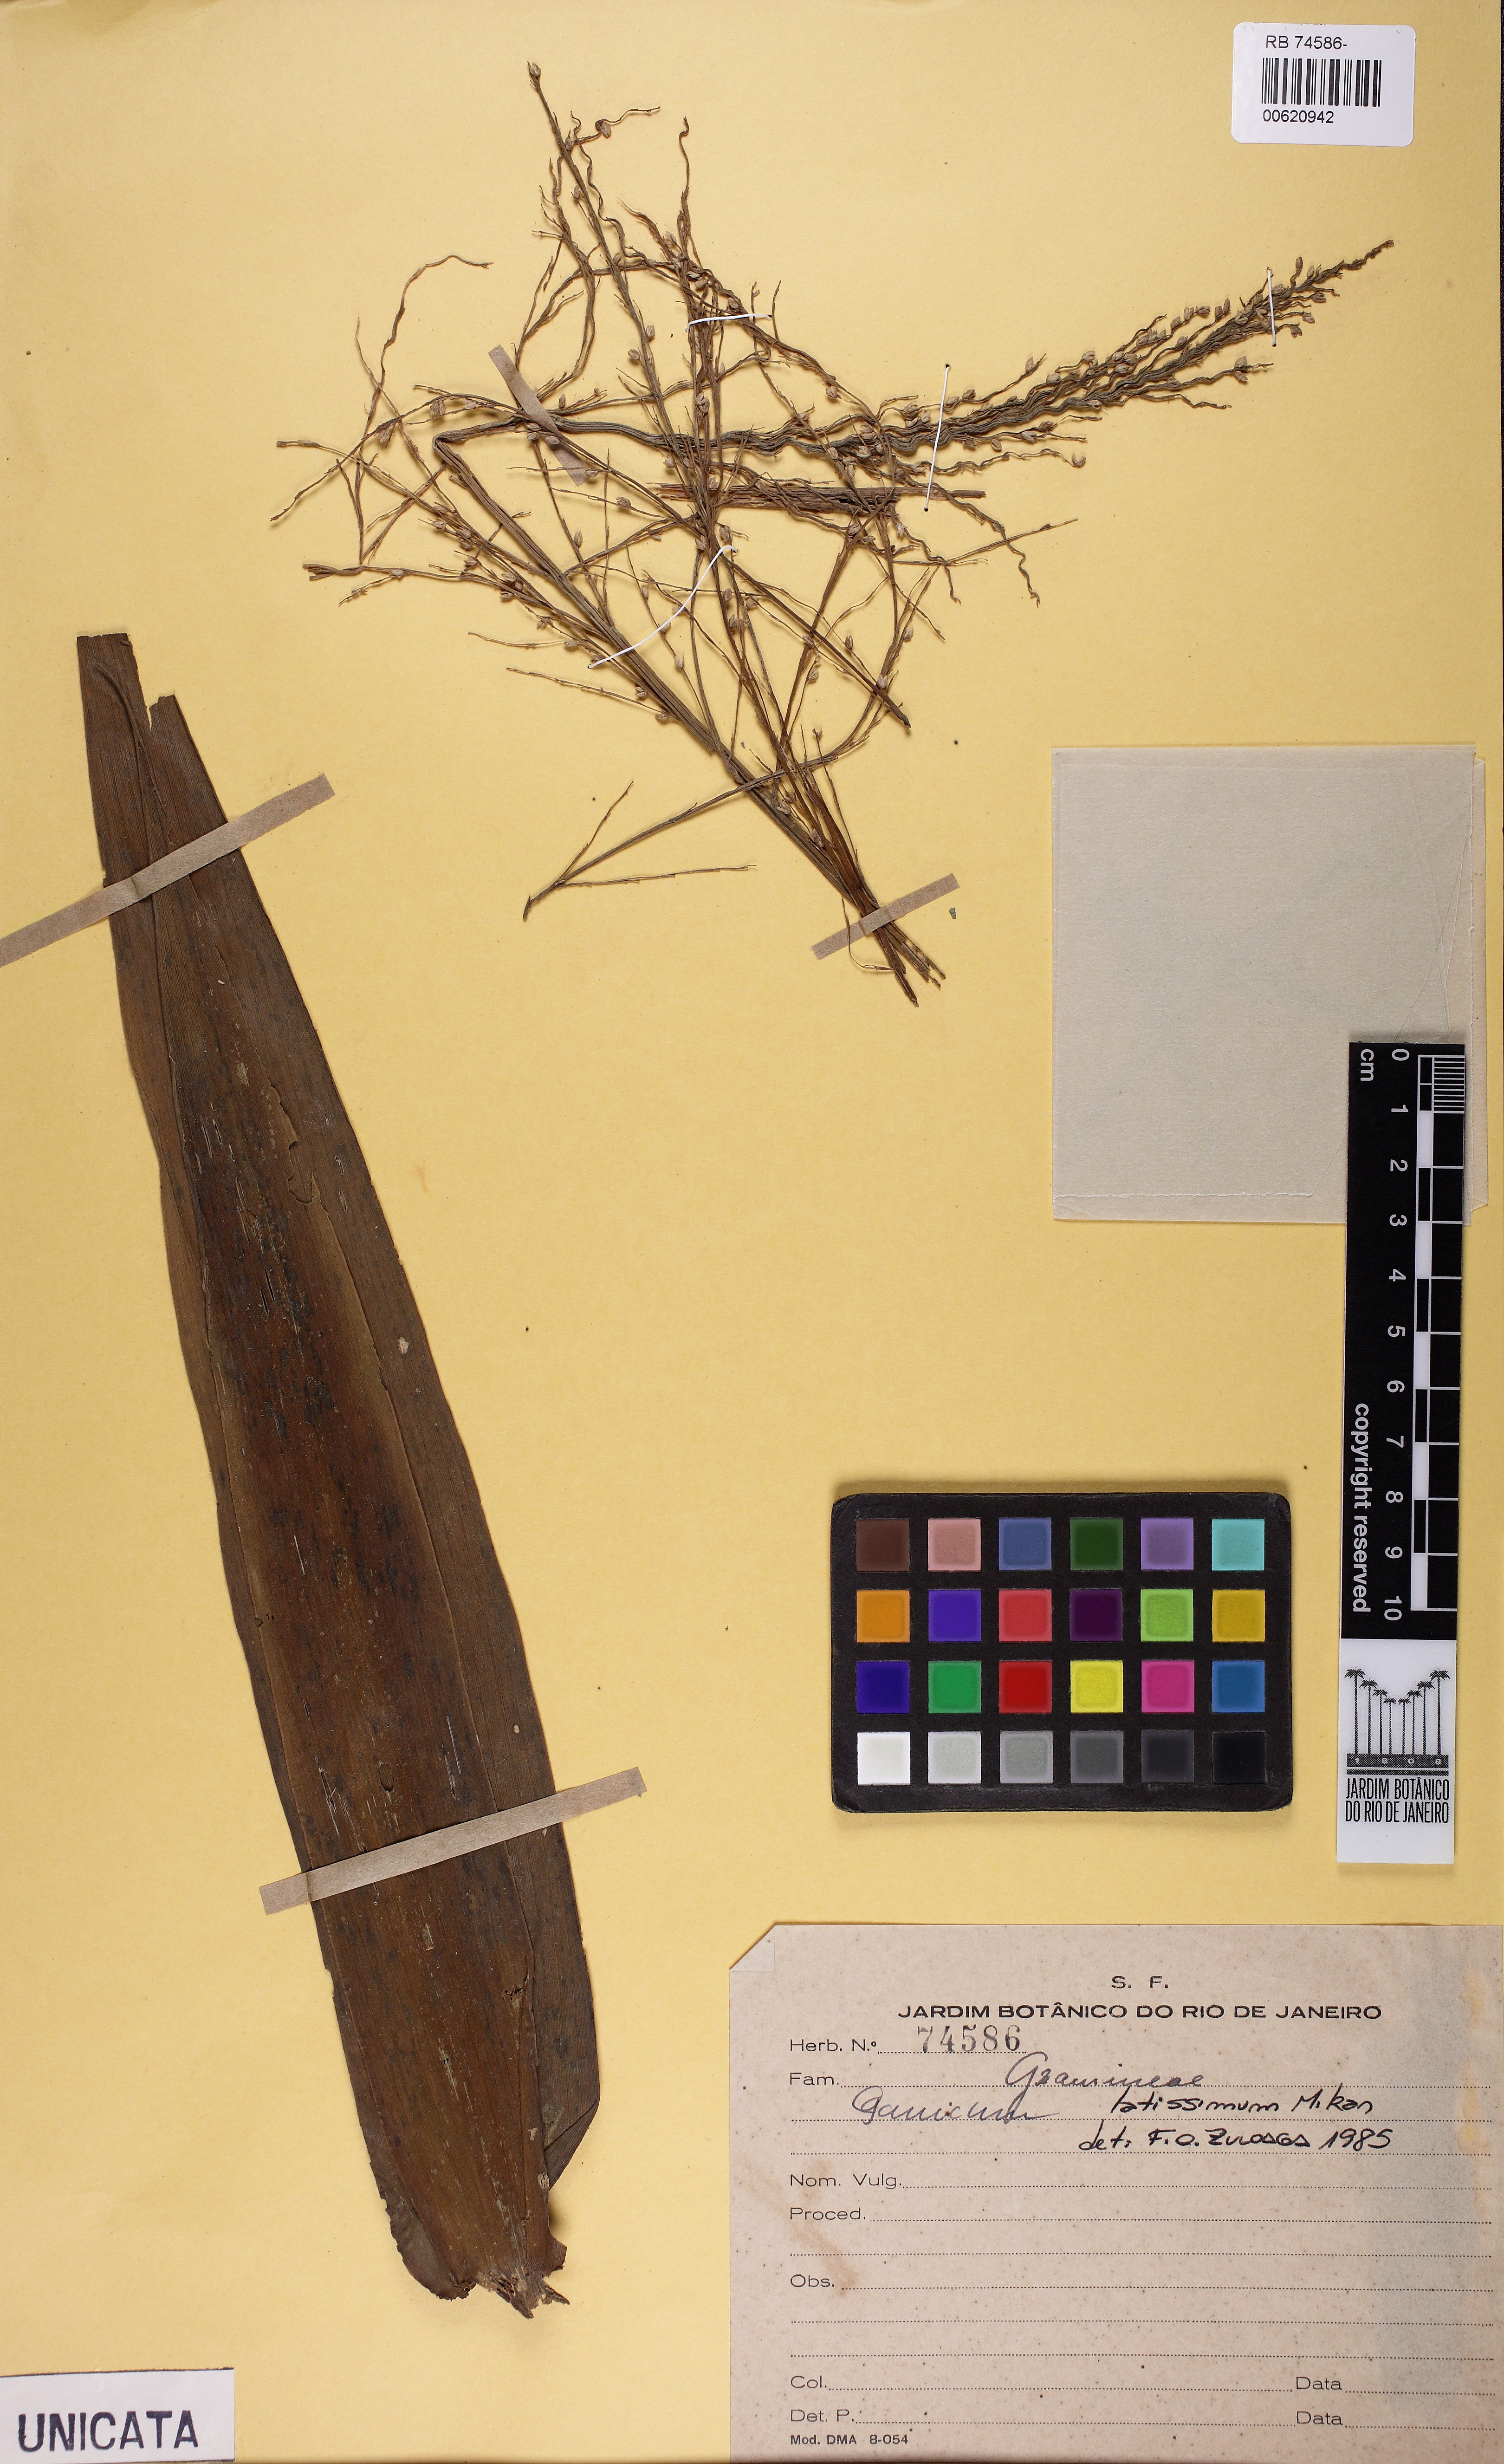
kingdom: Plantae
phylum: Tracheophyta
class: Liliopsida
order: Poales
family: Poaceae
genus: Ocellochloa
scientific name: Ocellochloa latissima
